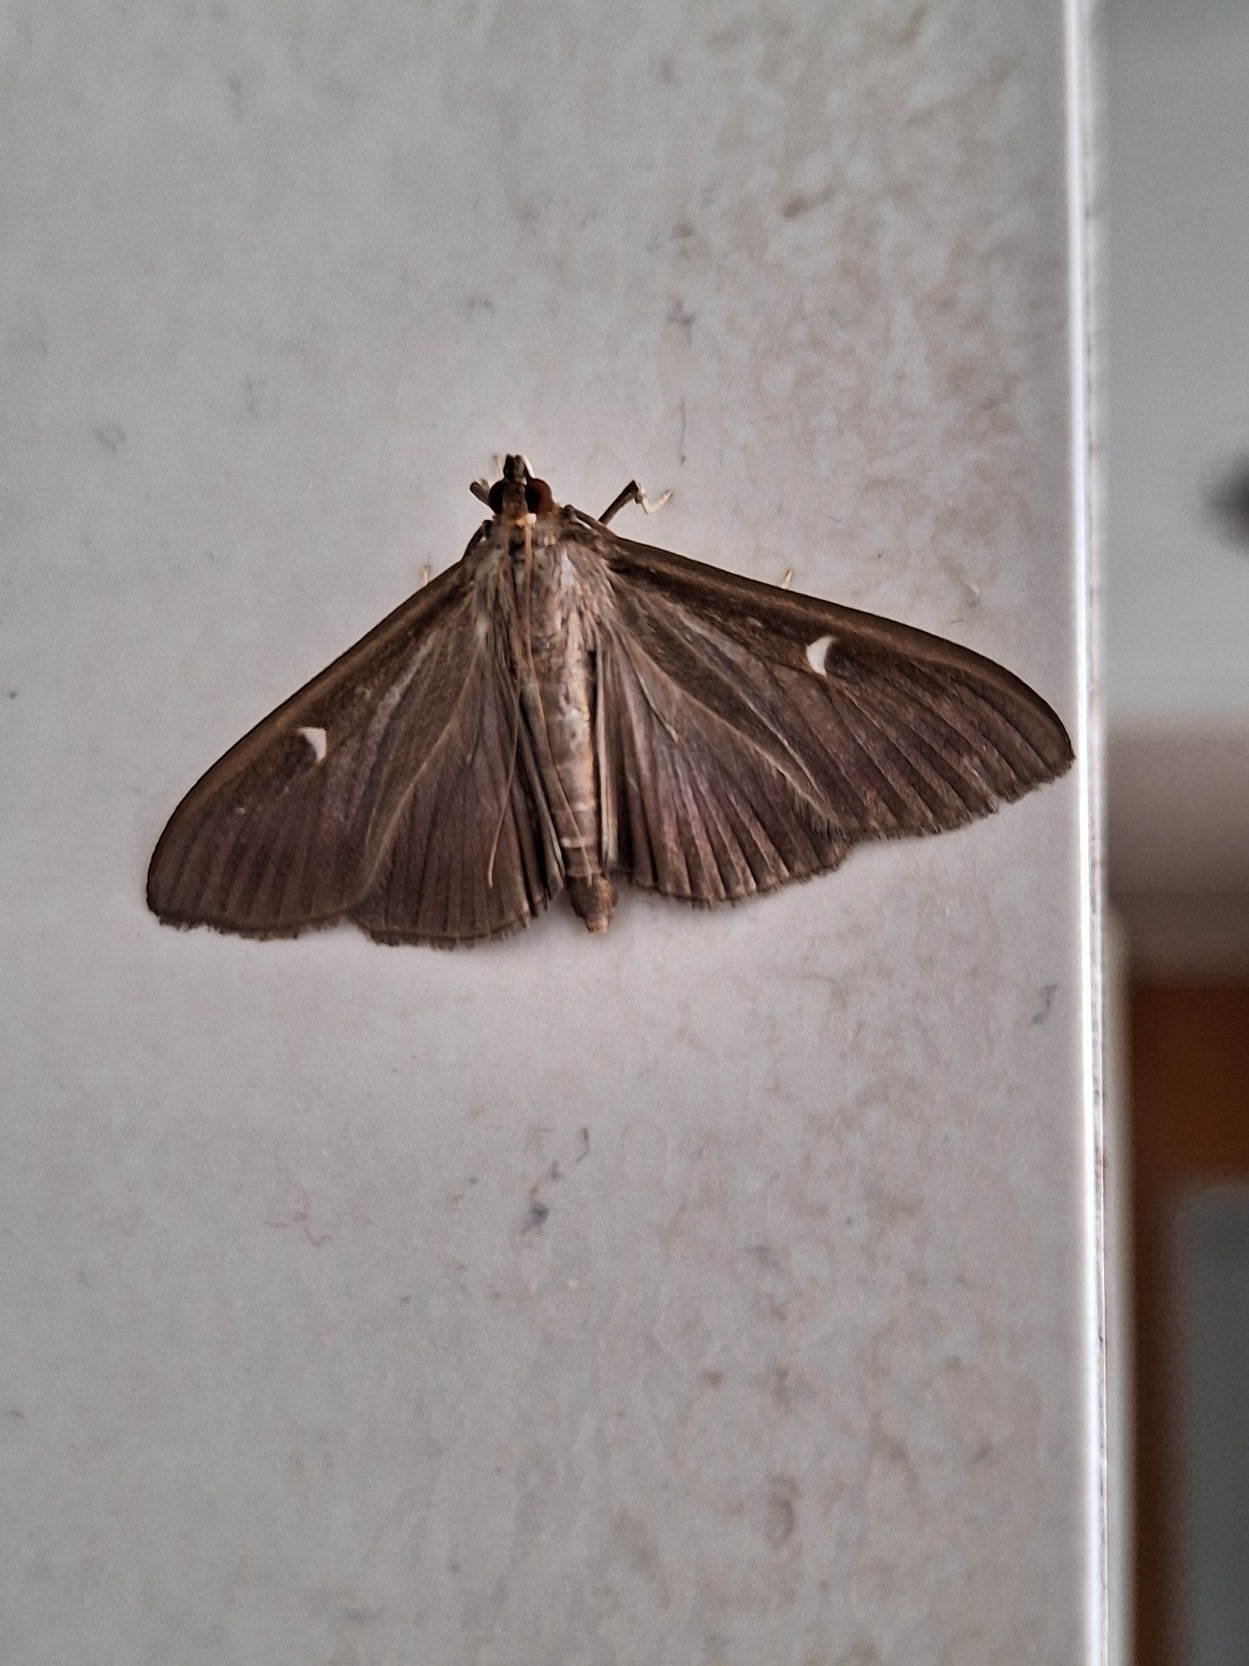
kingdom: Animalia
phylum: Arthropoda
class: Insecta
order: Lepidoptera
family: Crambidae
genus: Cydalima
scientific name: Cydalima perspectalis
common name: Buksbomhalvmøl
